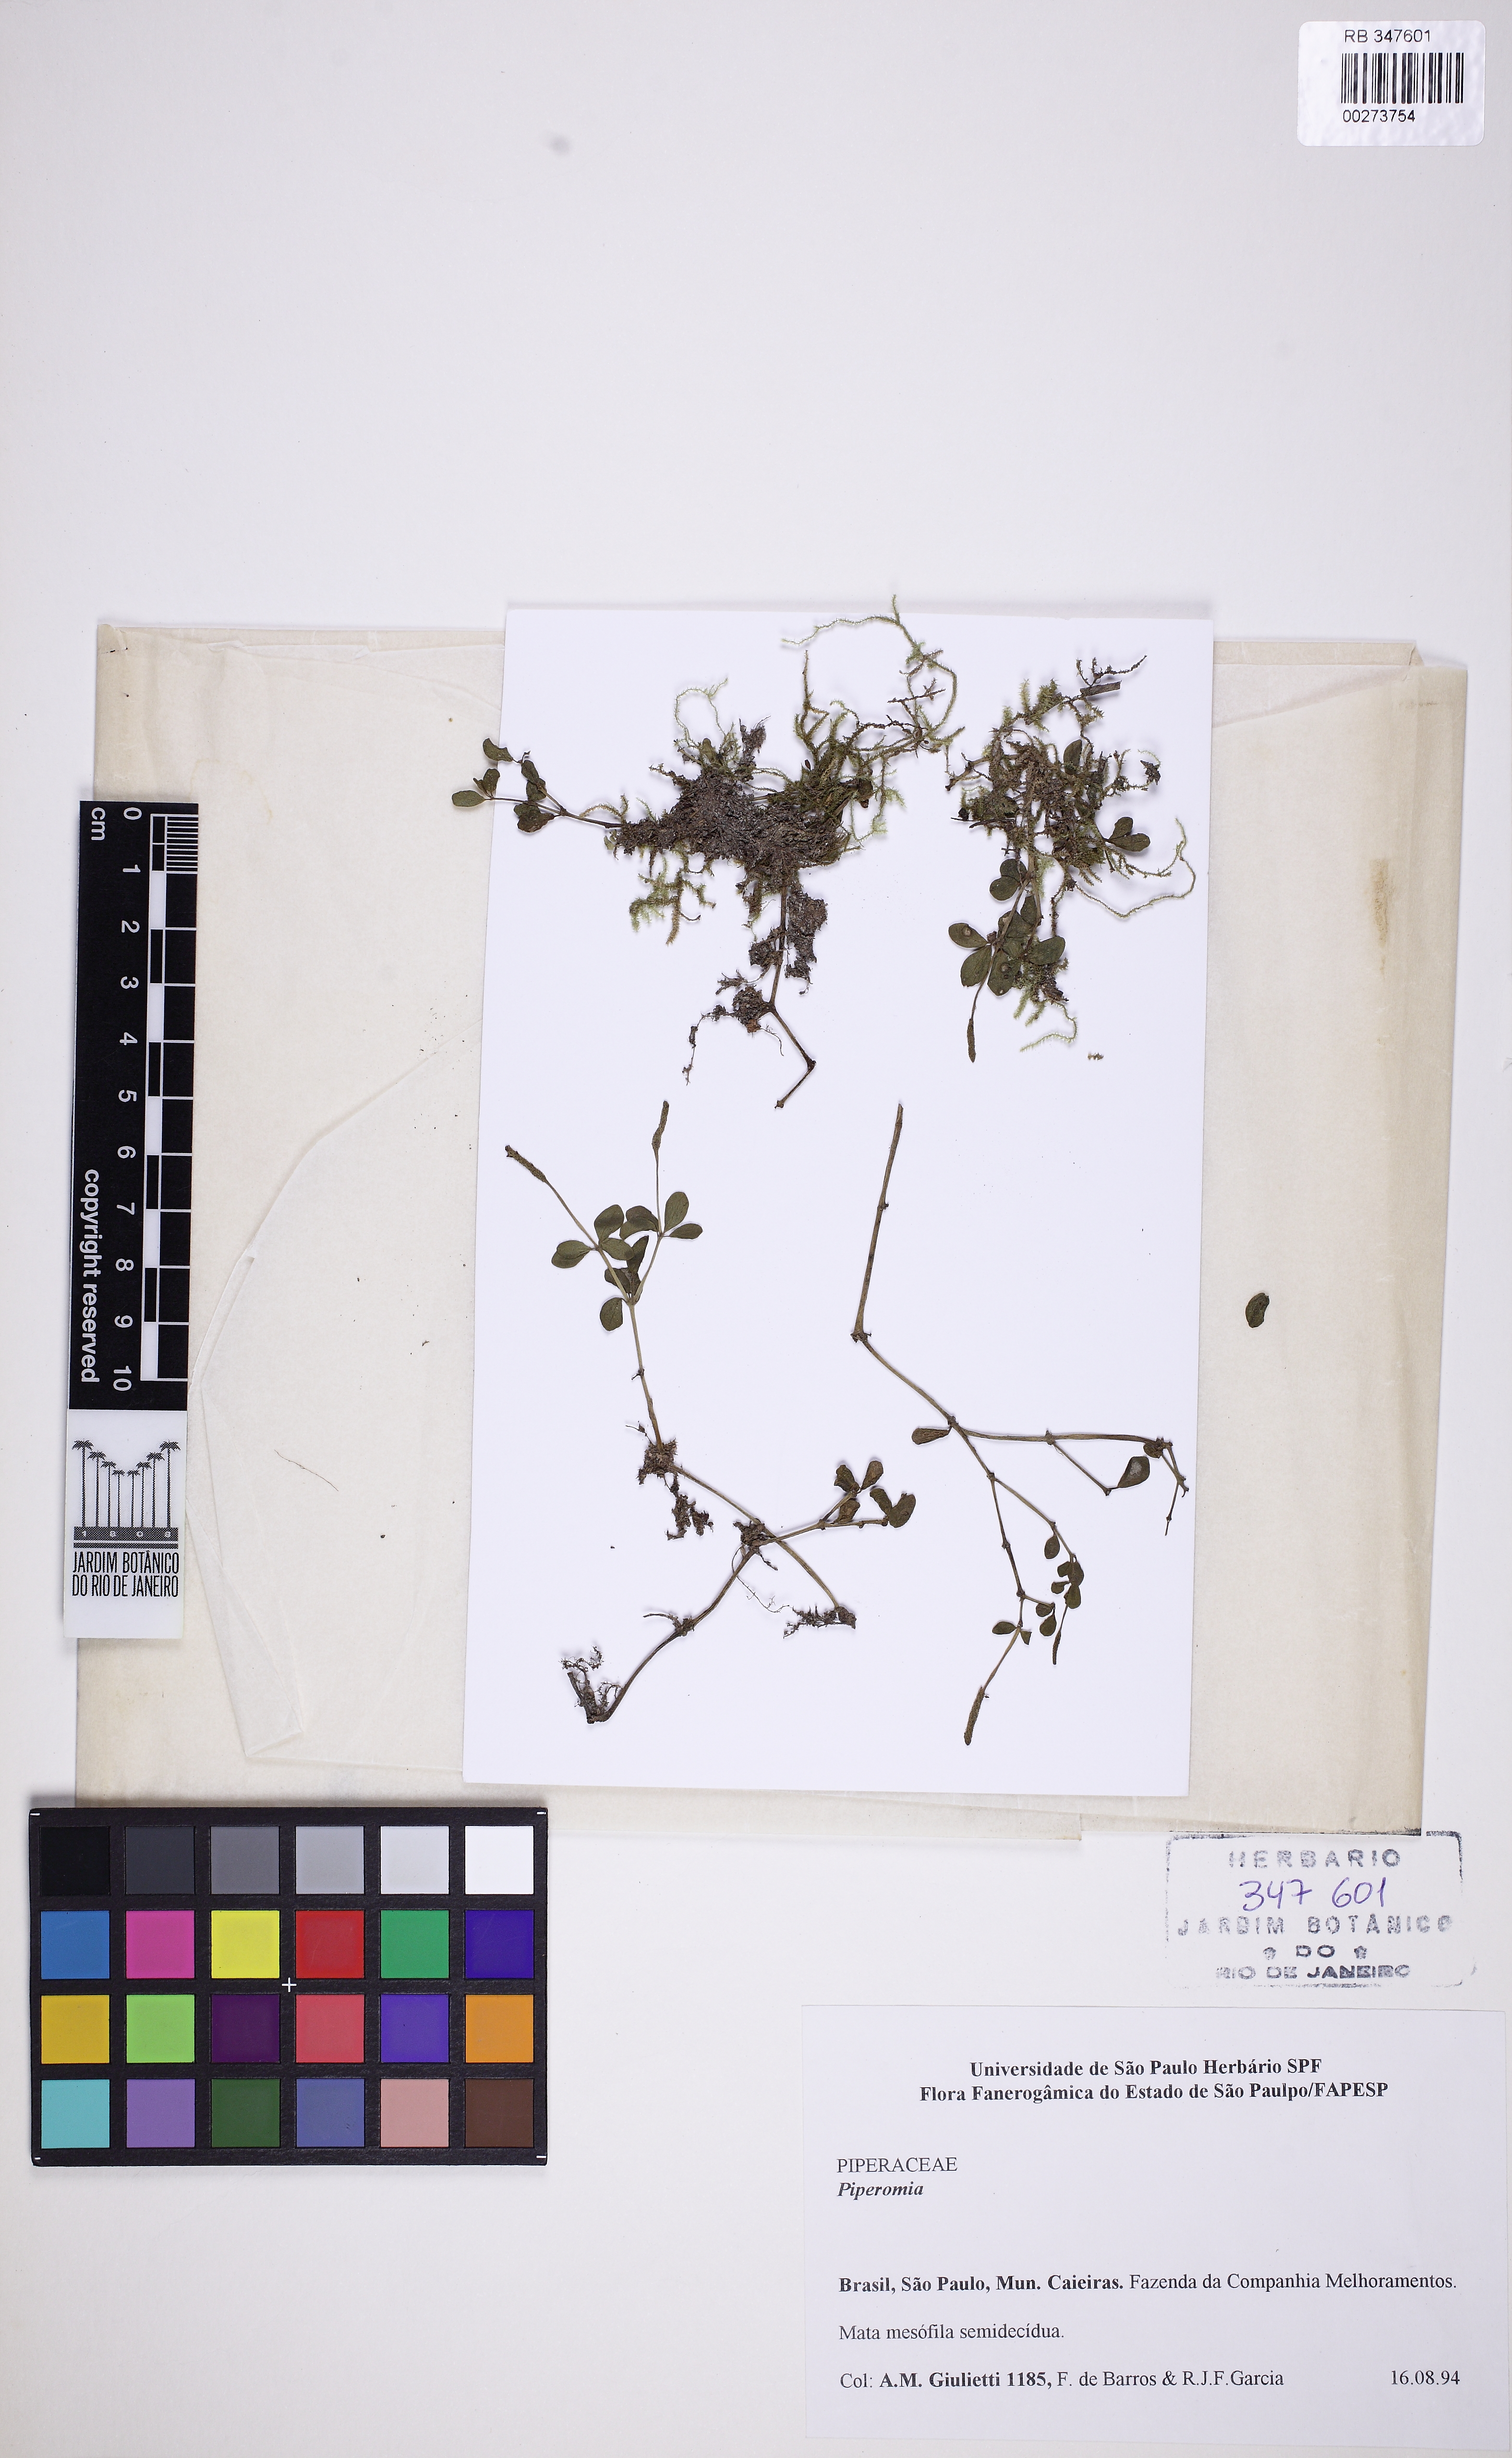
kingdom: Plantae
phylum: Tracheophyta
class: Magnoliopsida
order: Piperales
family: Piperaceae
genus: Peperomia
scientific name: Peperomia catharinae
